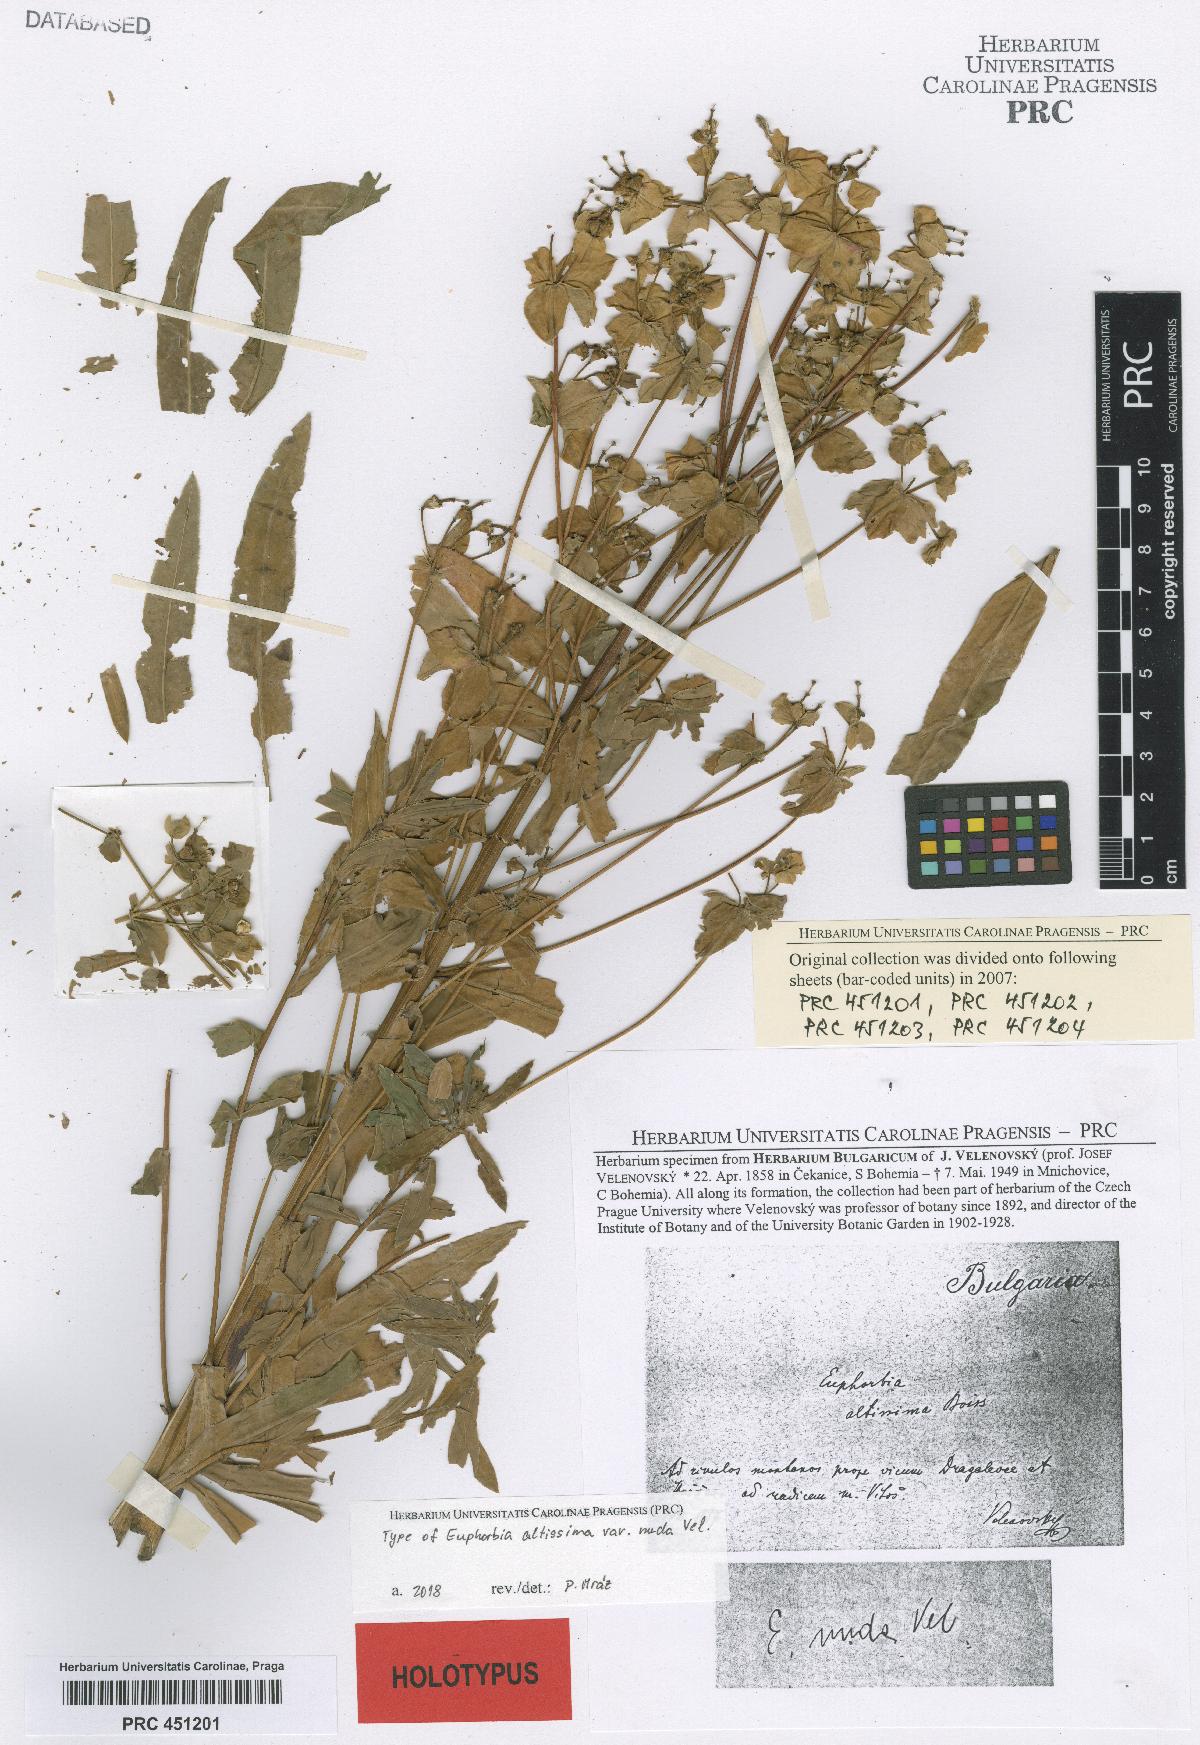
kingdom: Plantae
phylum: Tracheophyta
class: Magnoliopsida
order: Malpighiales
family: Euphorbiaceae
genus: Euphorbia
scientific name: Euphorbia altissima
